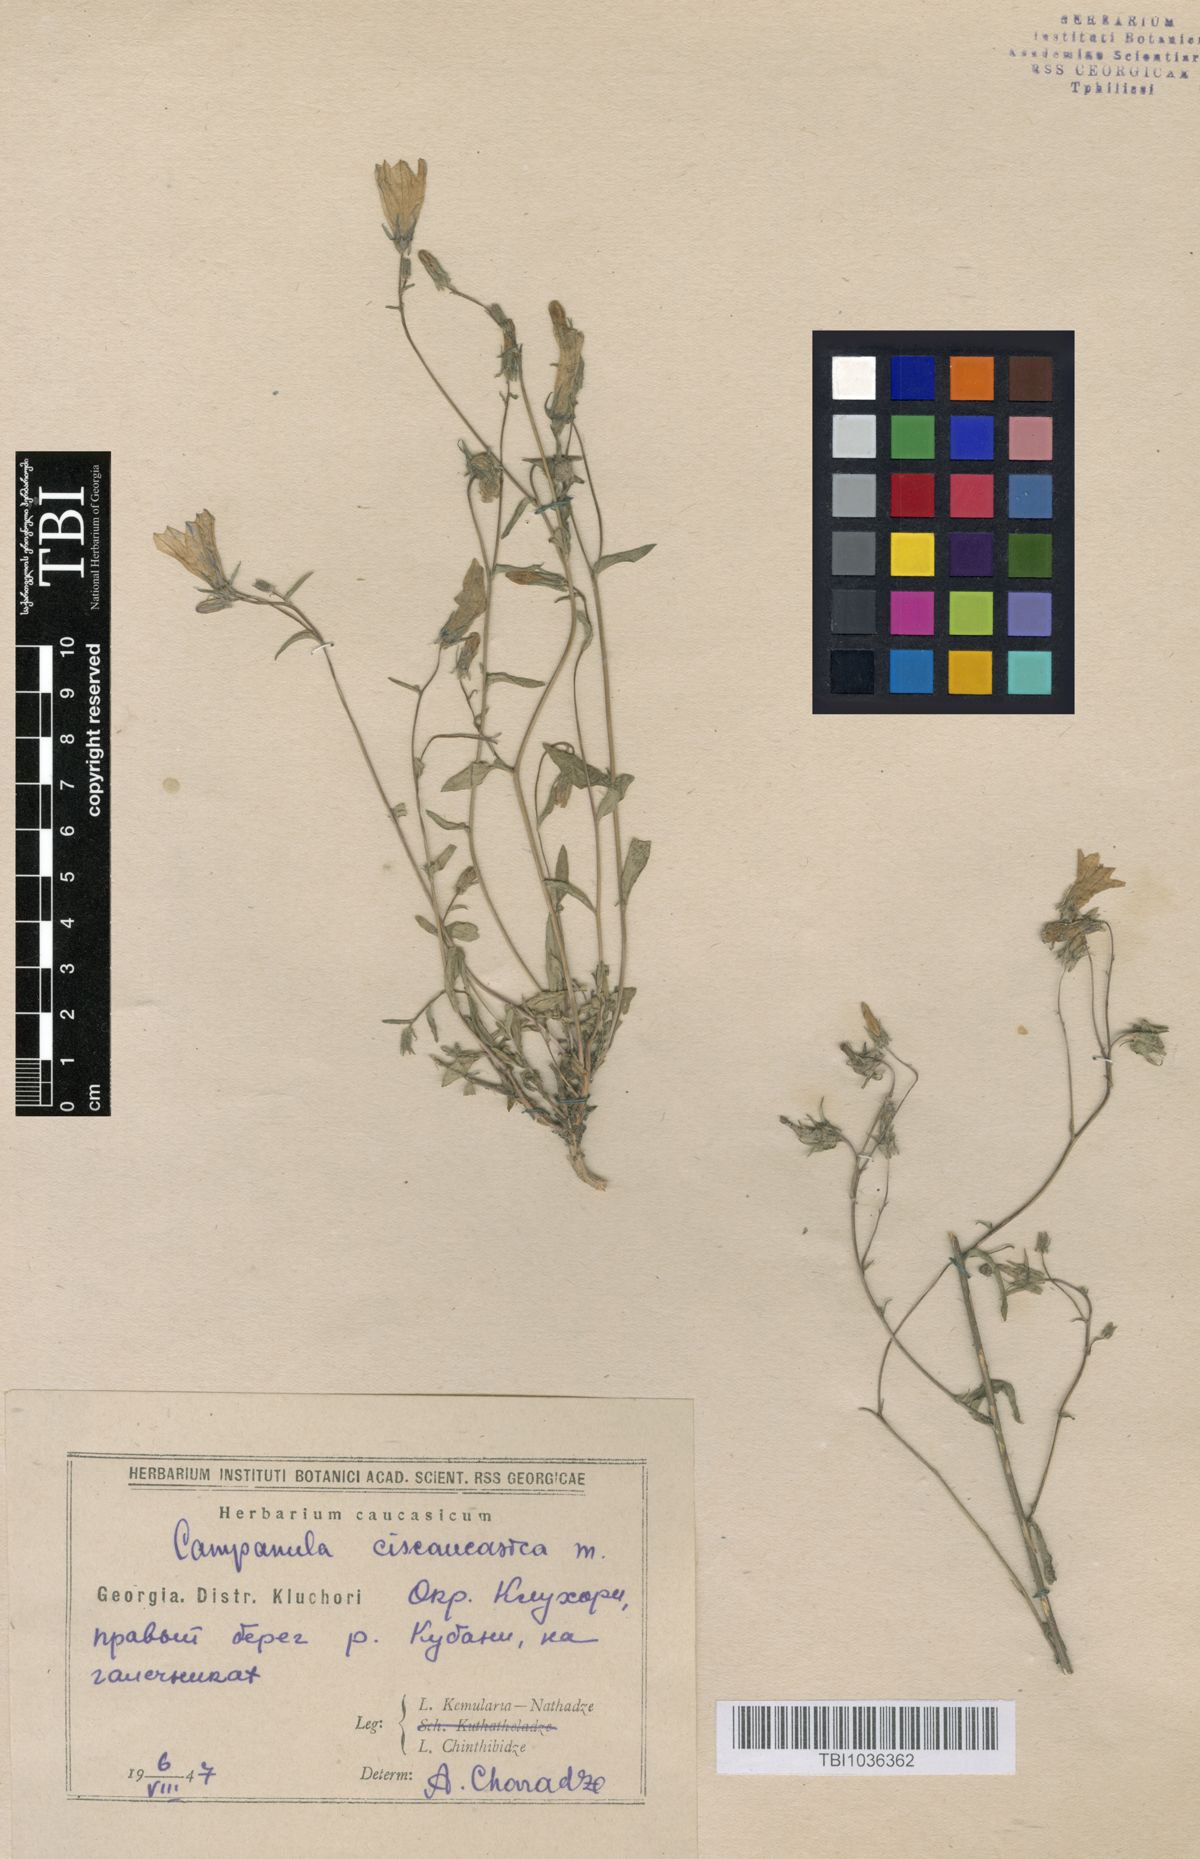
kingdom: Plantae
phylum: Tracheophyta
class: Magnoliopsida
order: Asterales
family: Campanulaceae
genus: Campanula
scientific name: Campanula sibirica
